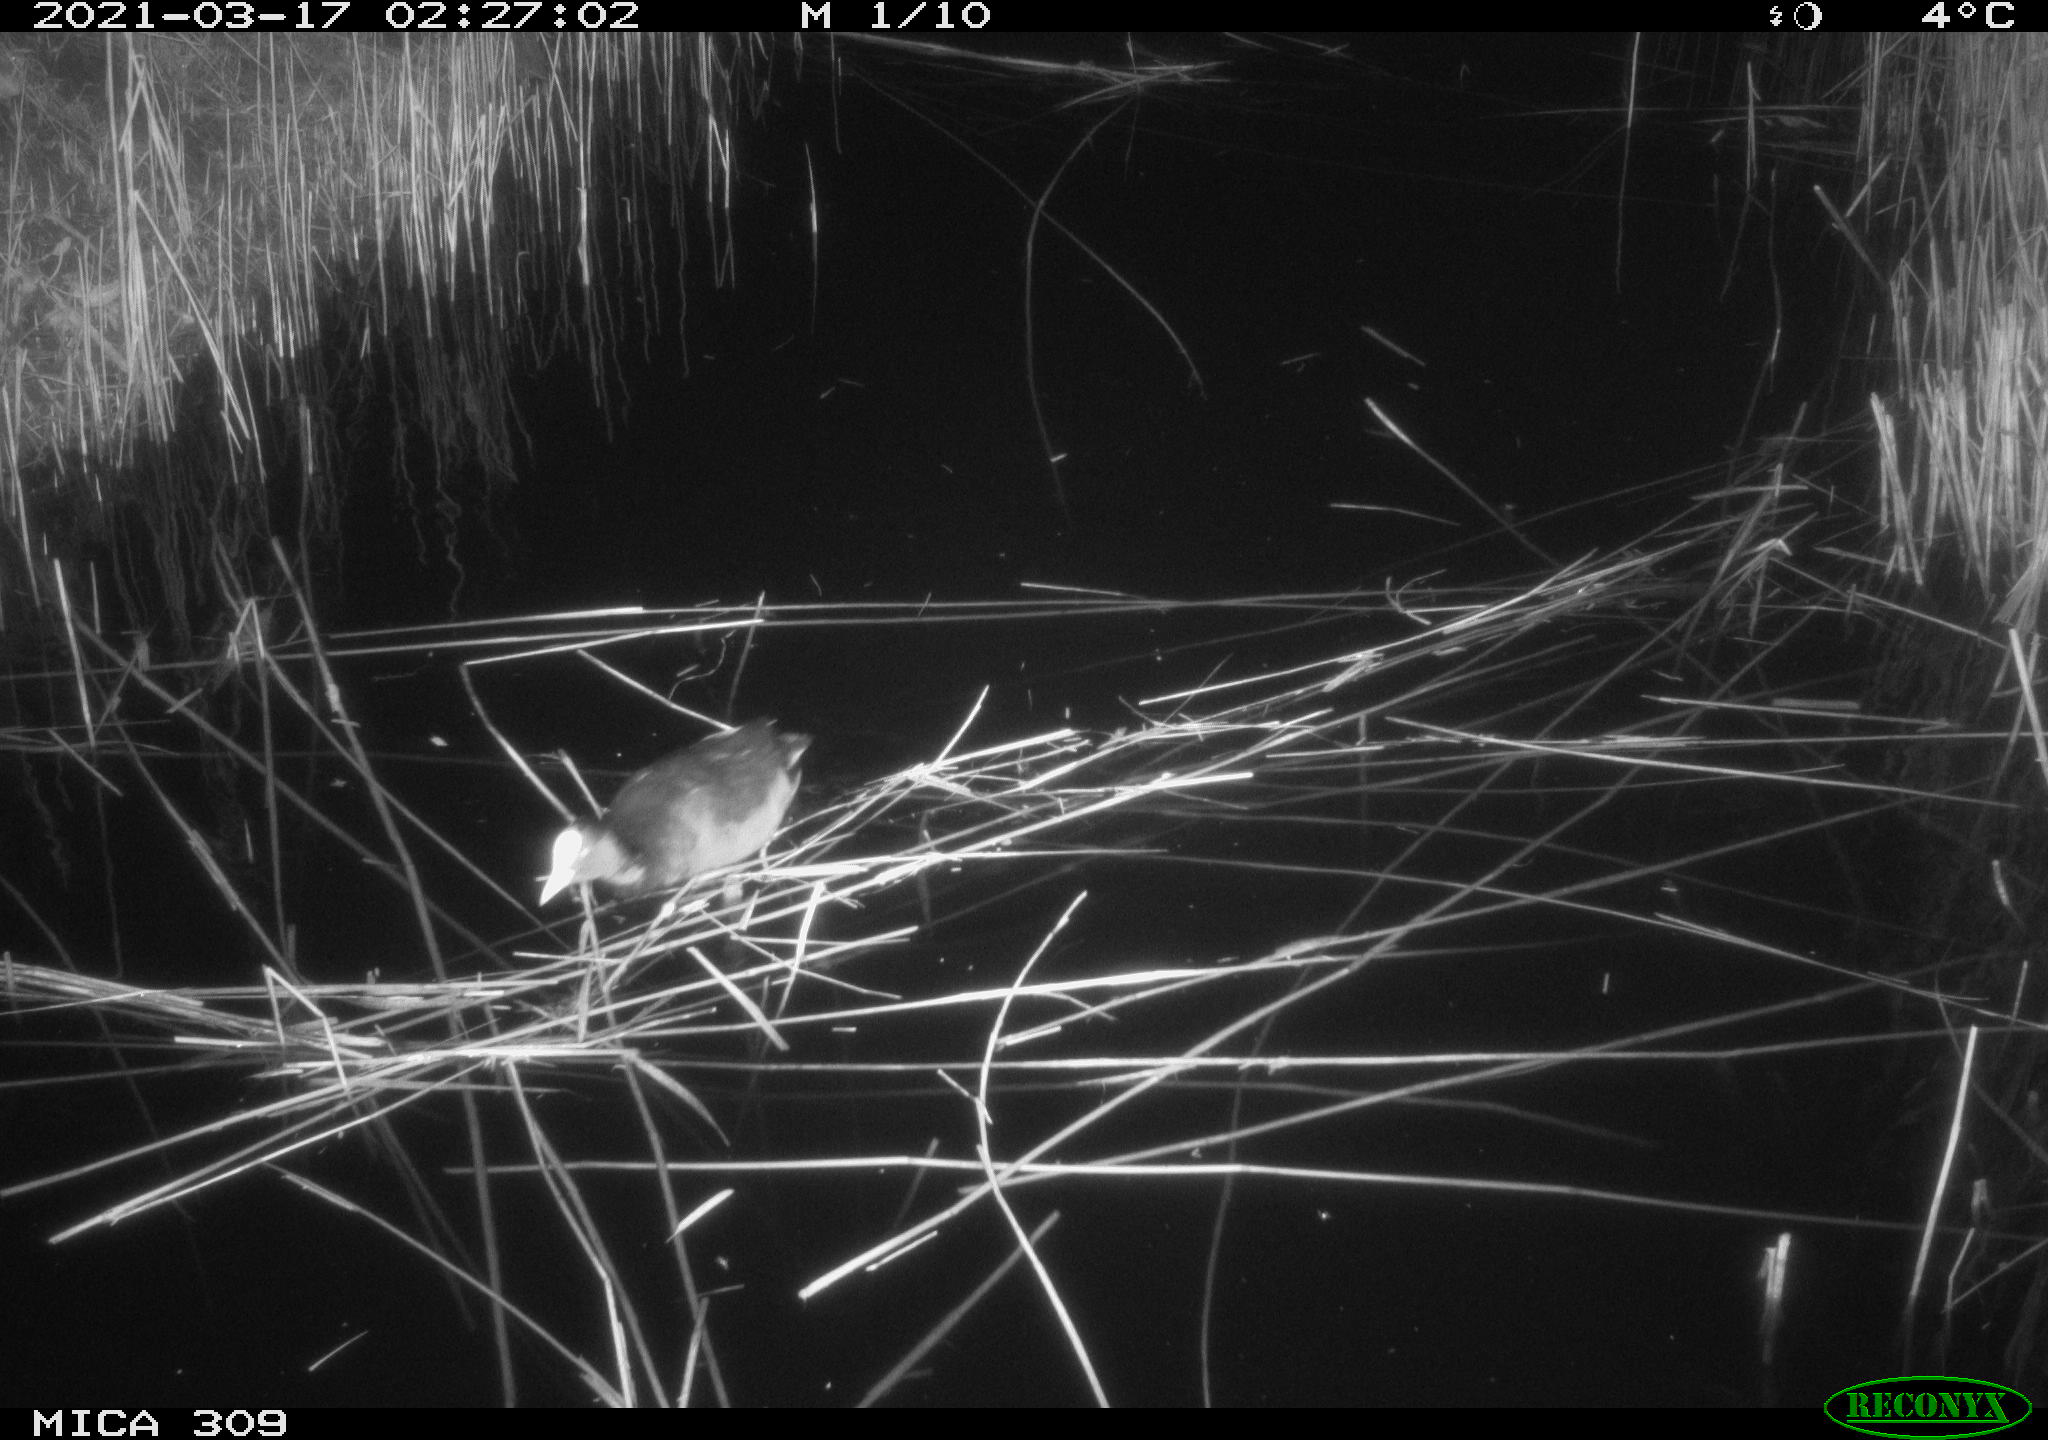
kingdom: Animalia
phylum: Chordata
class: Aves
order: Gruiformes
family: Rallidae
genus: Fulica
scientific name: Fulica atra
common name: Eurasian coot
